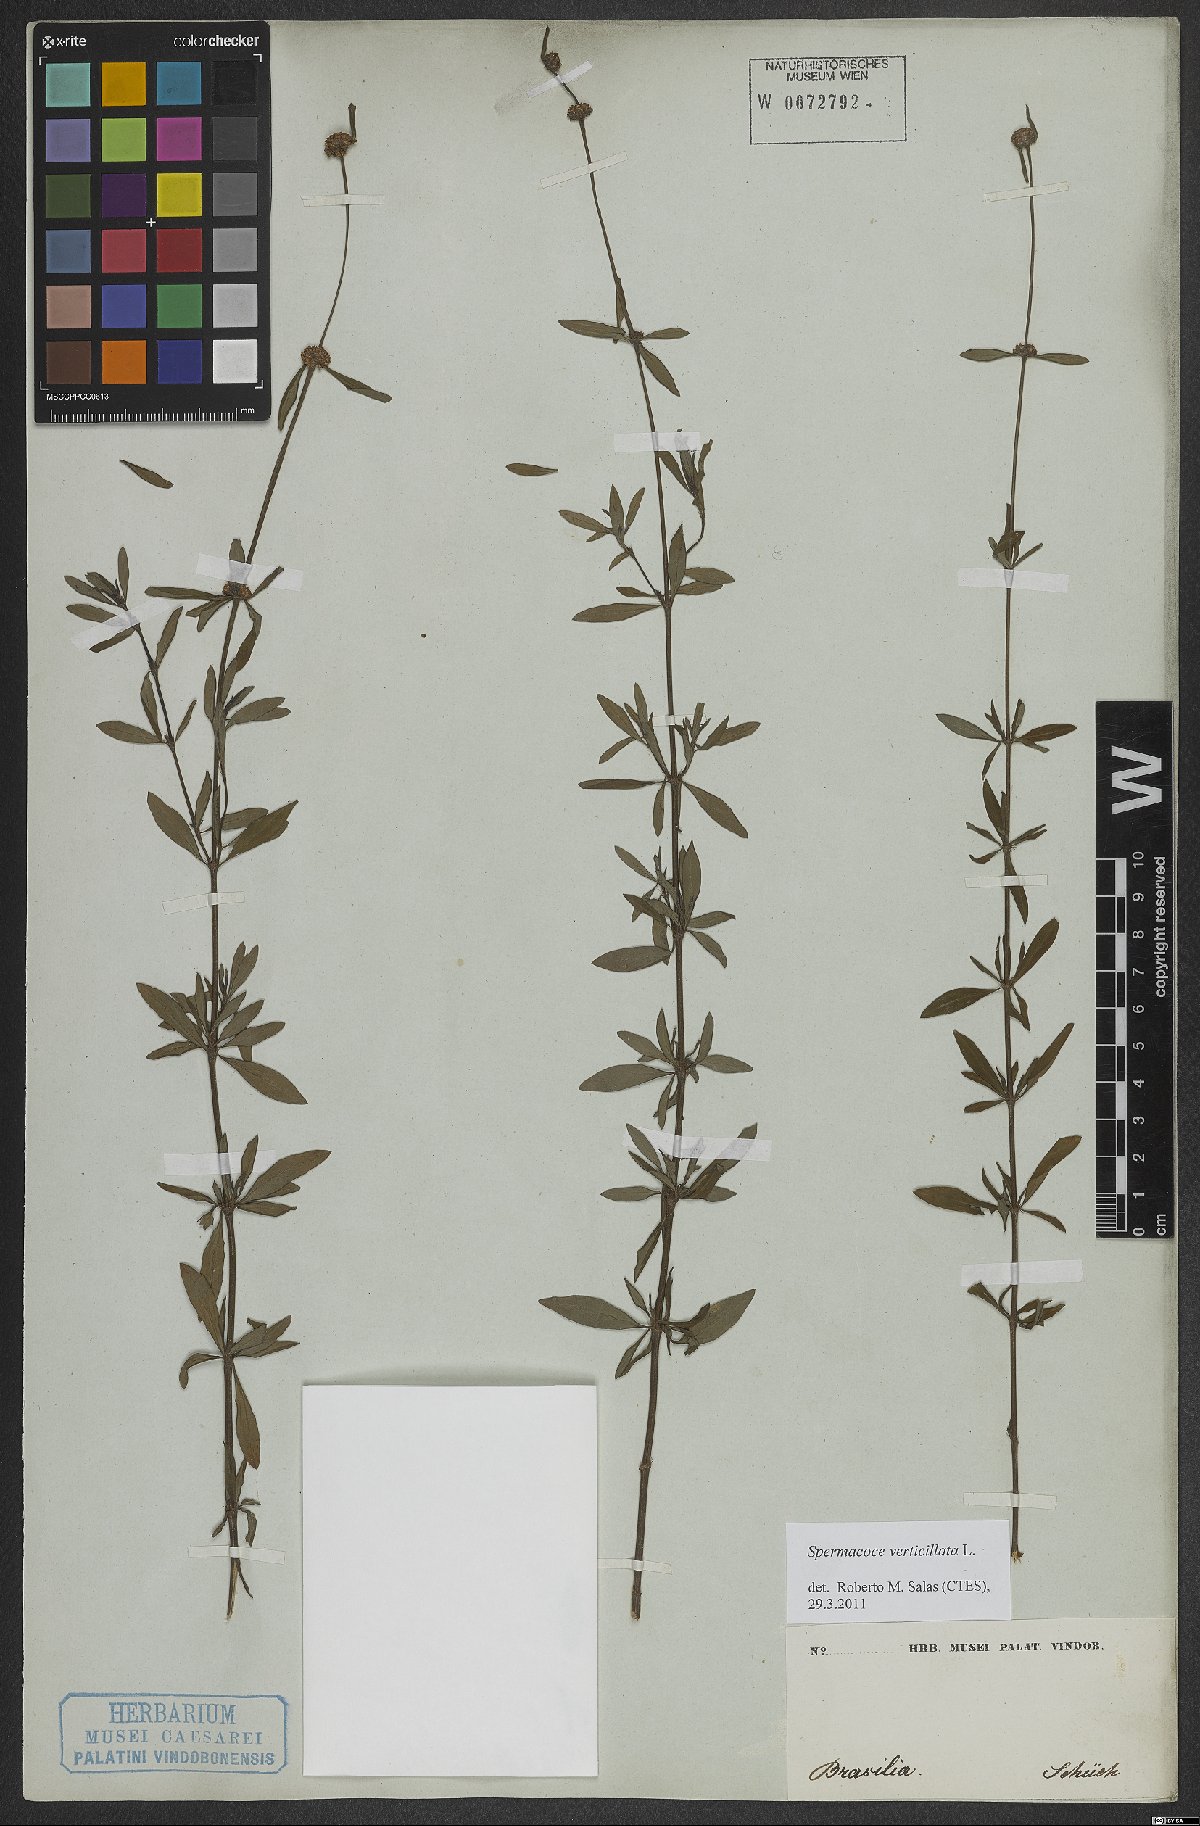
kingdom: Plantae
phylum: Tracheophyta
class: Magnoliopsida
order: Gentianales
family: Rubiaceae
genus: Spermacoce
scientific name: Spermacoce verticillata
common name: Shrubby false buttonweed
